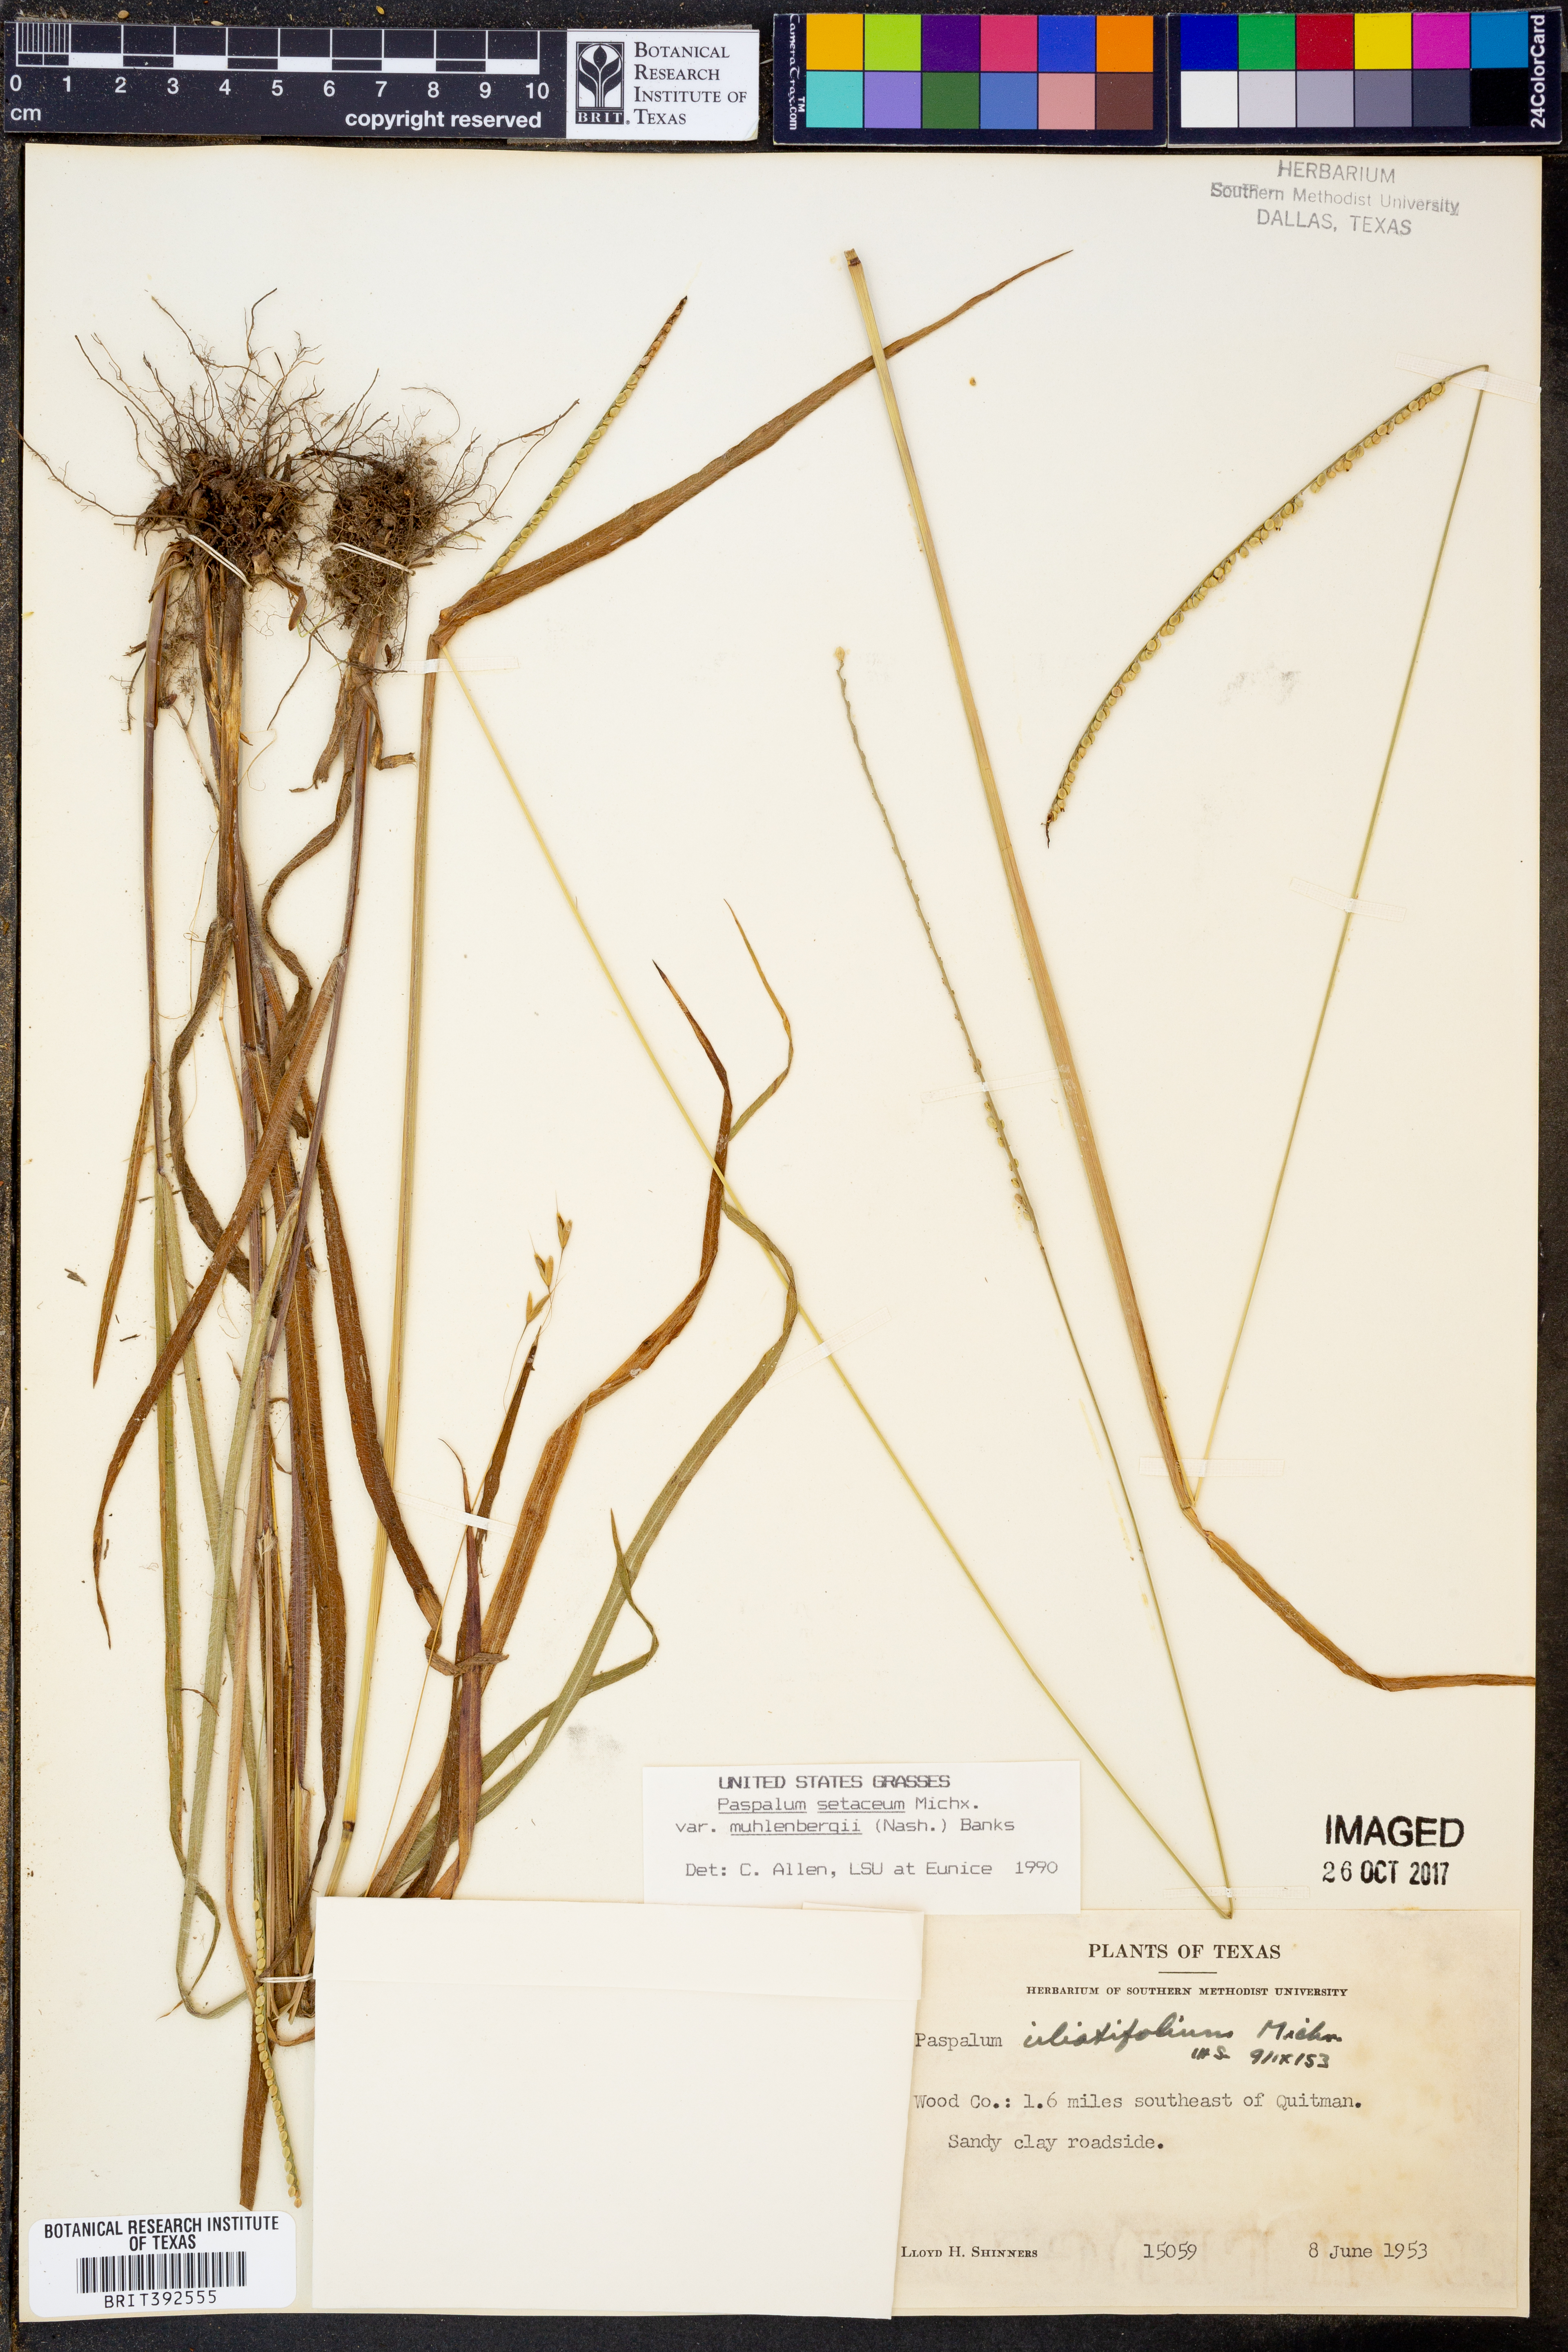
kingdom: Plantae
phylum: Tracheophyta
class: Liliopsida
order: Poales
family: Poaceae
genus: Paspalum
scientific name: Paspalum setaceum
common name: Slender paspalum
